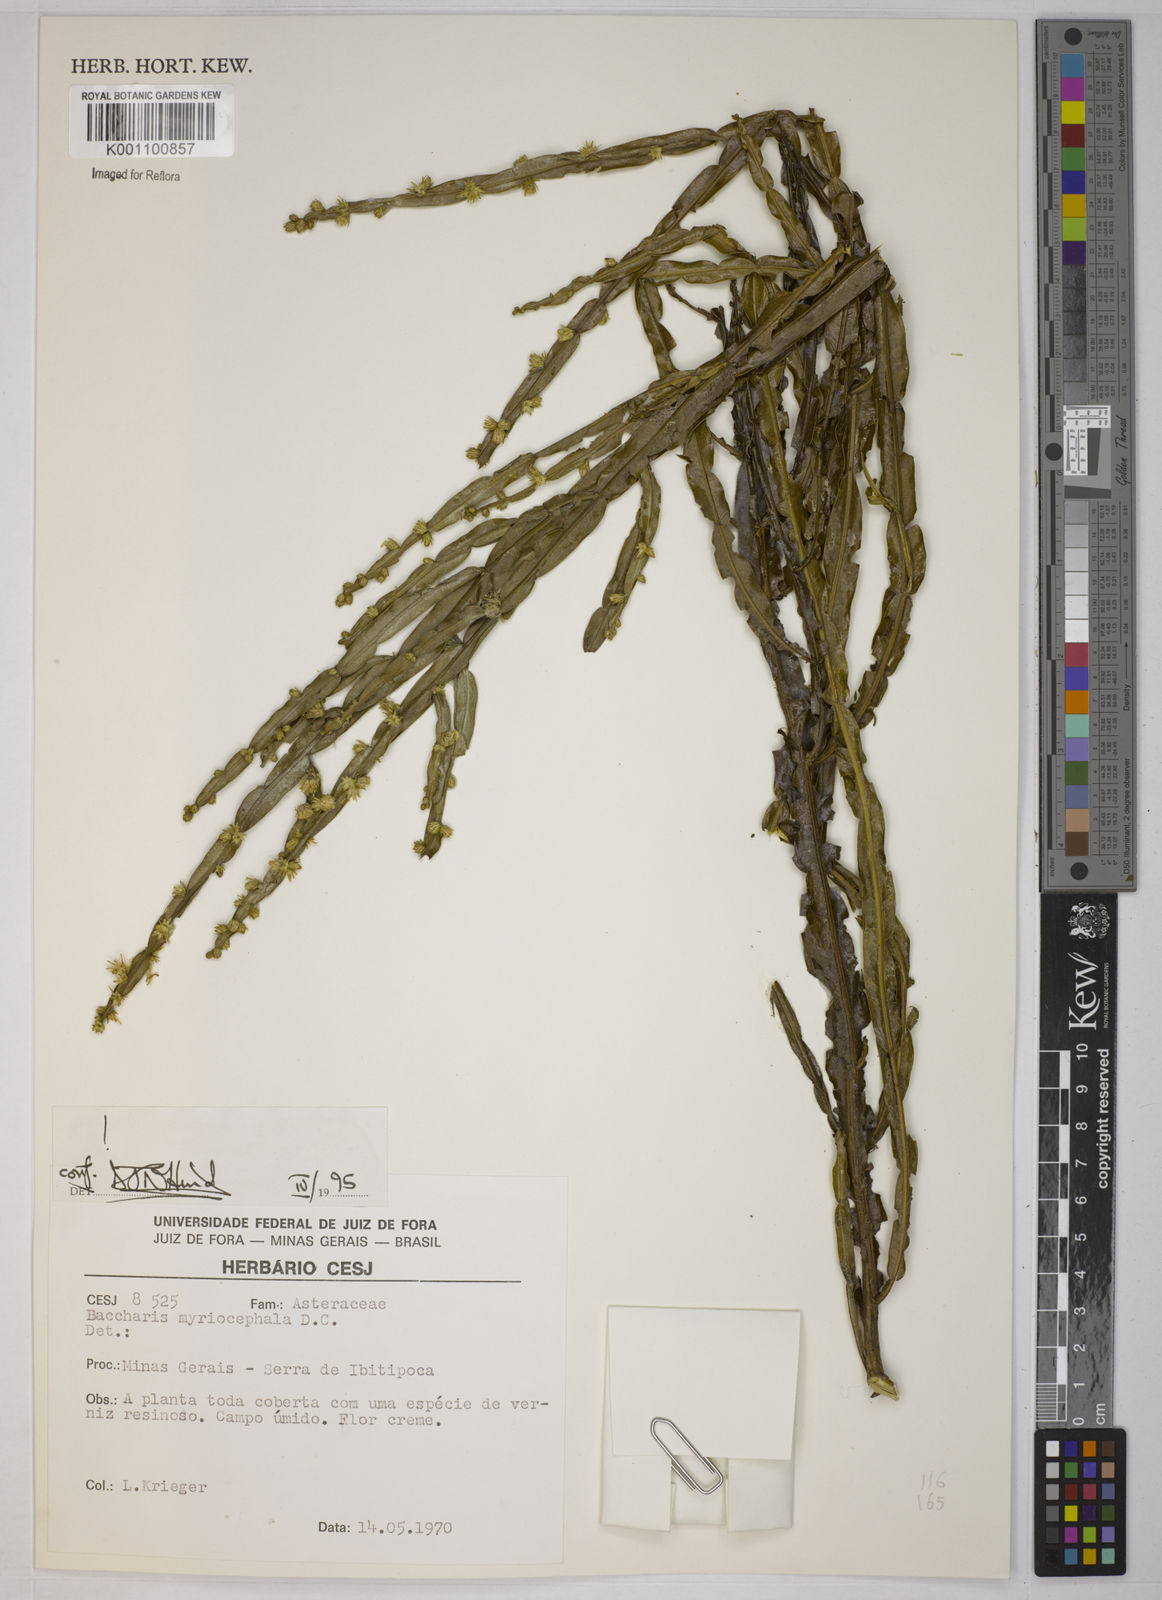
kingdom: Plantae
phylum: Tracheophyta
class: Magnoliopsida
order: Asterales
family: Asteraceae
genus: Baccharis
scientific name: Baccharis myriocephala
